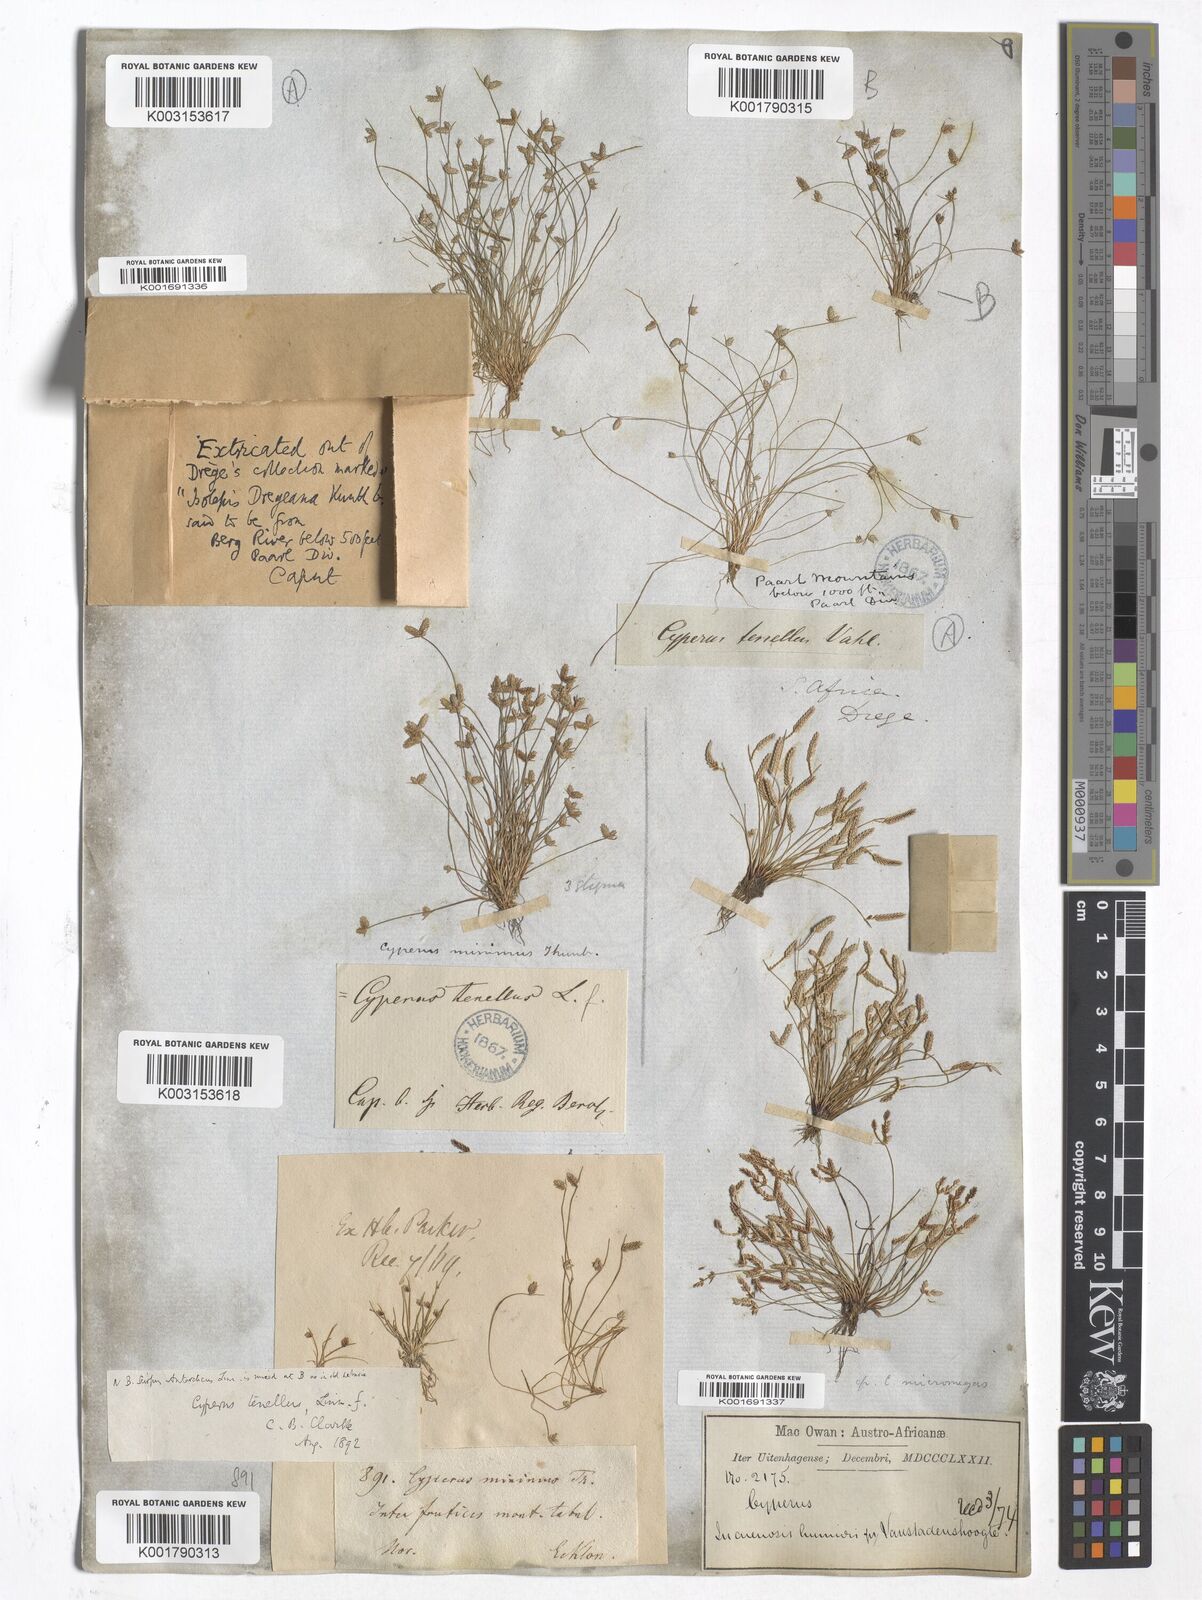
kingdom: Plantae
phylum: Tracheophyta
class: Liliopsida
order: Poales
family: Cyperaceae
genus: Cyperus
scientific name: Cyperus
